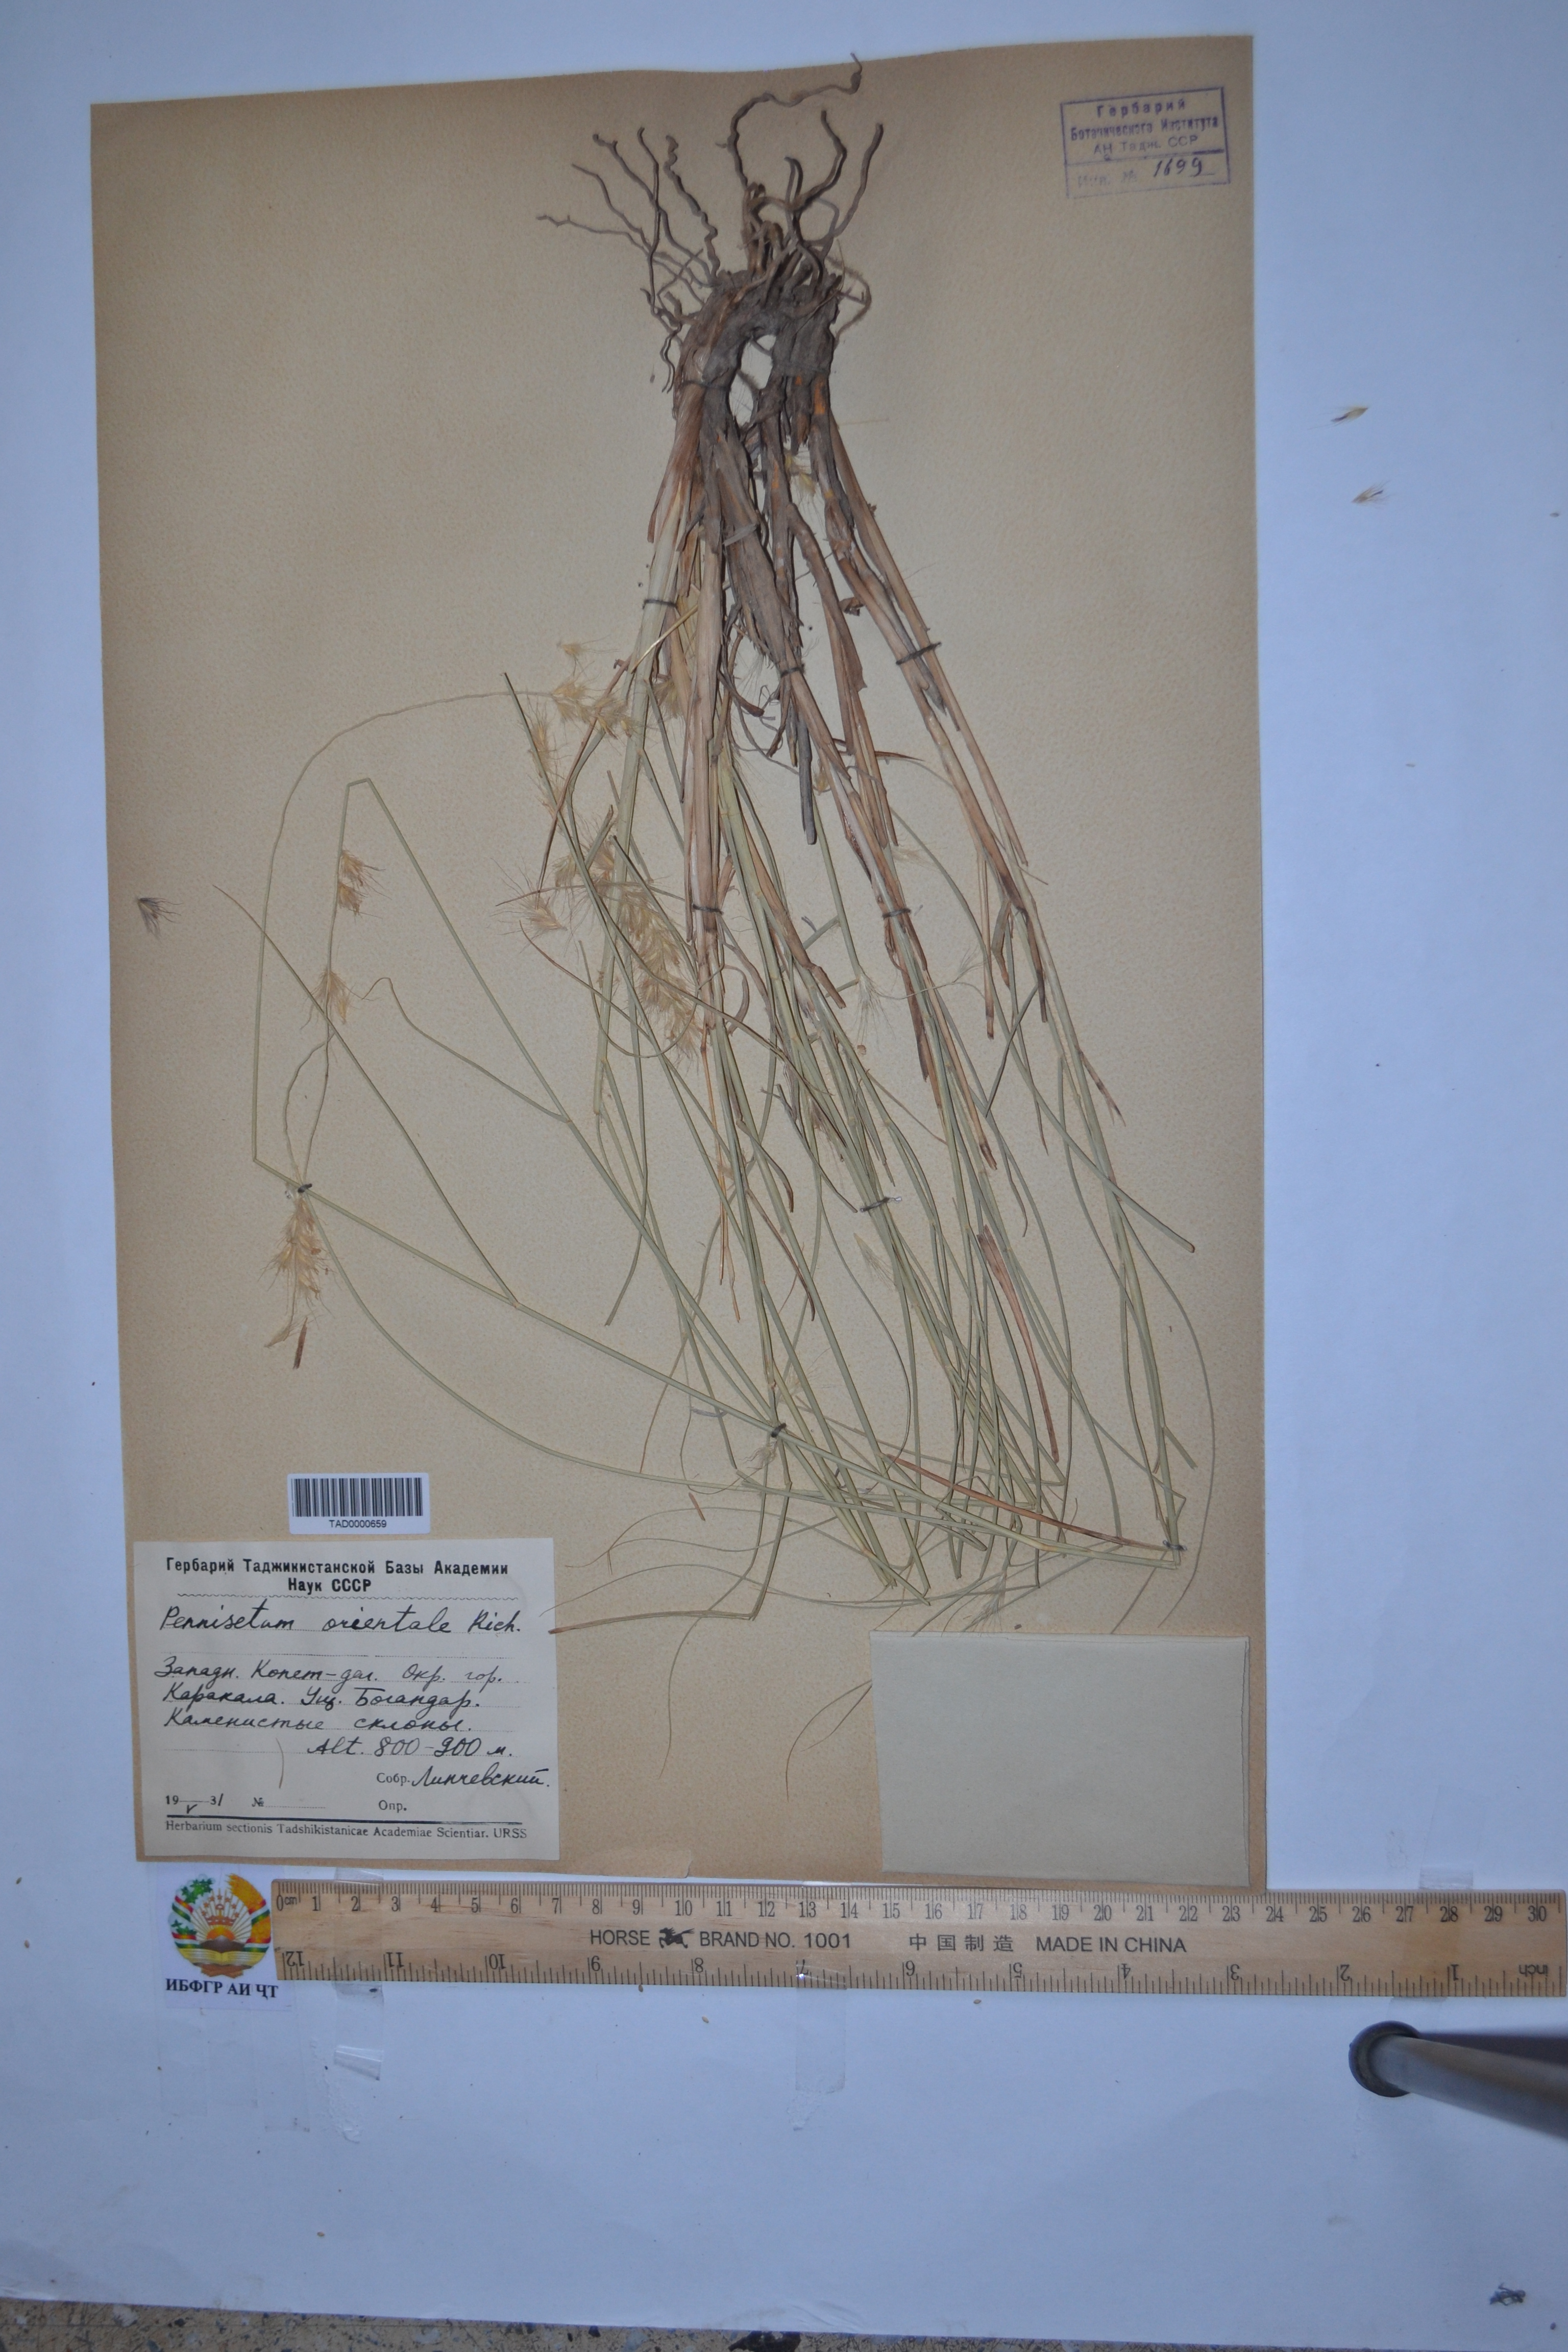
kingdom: Plantae
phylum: Tracheophyta
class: Liliopsida
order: Poales
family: Poaceae
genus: Cenchrus
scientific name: Cenchrus orientalis
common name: Oriental fountain grass
